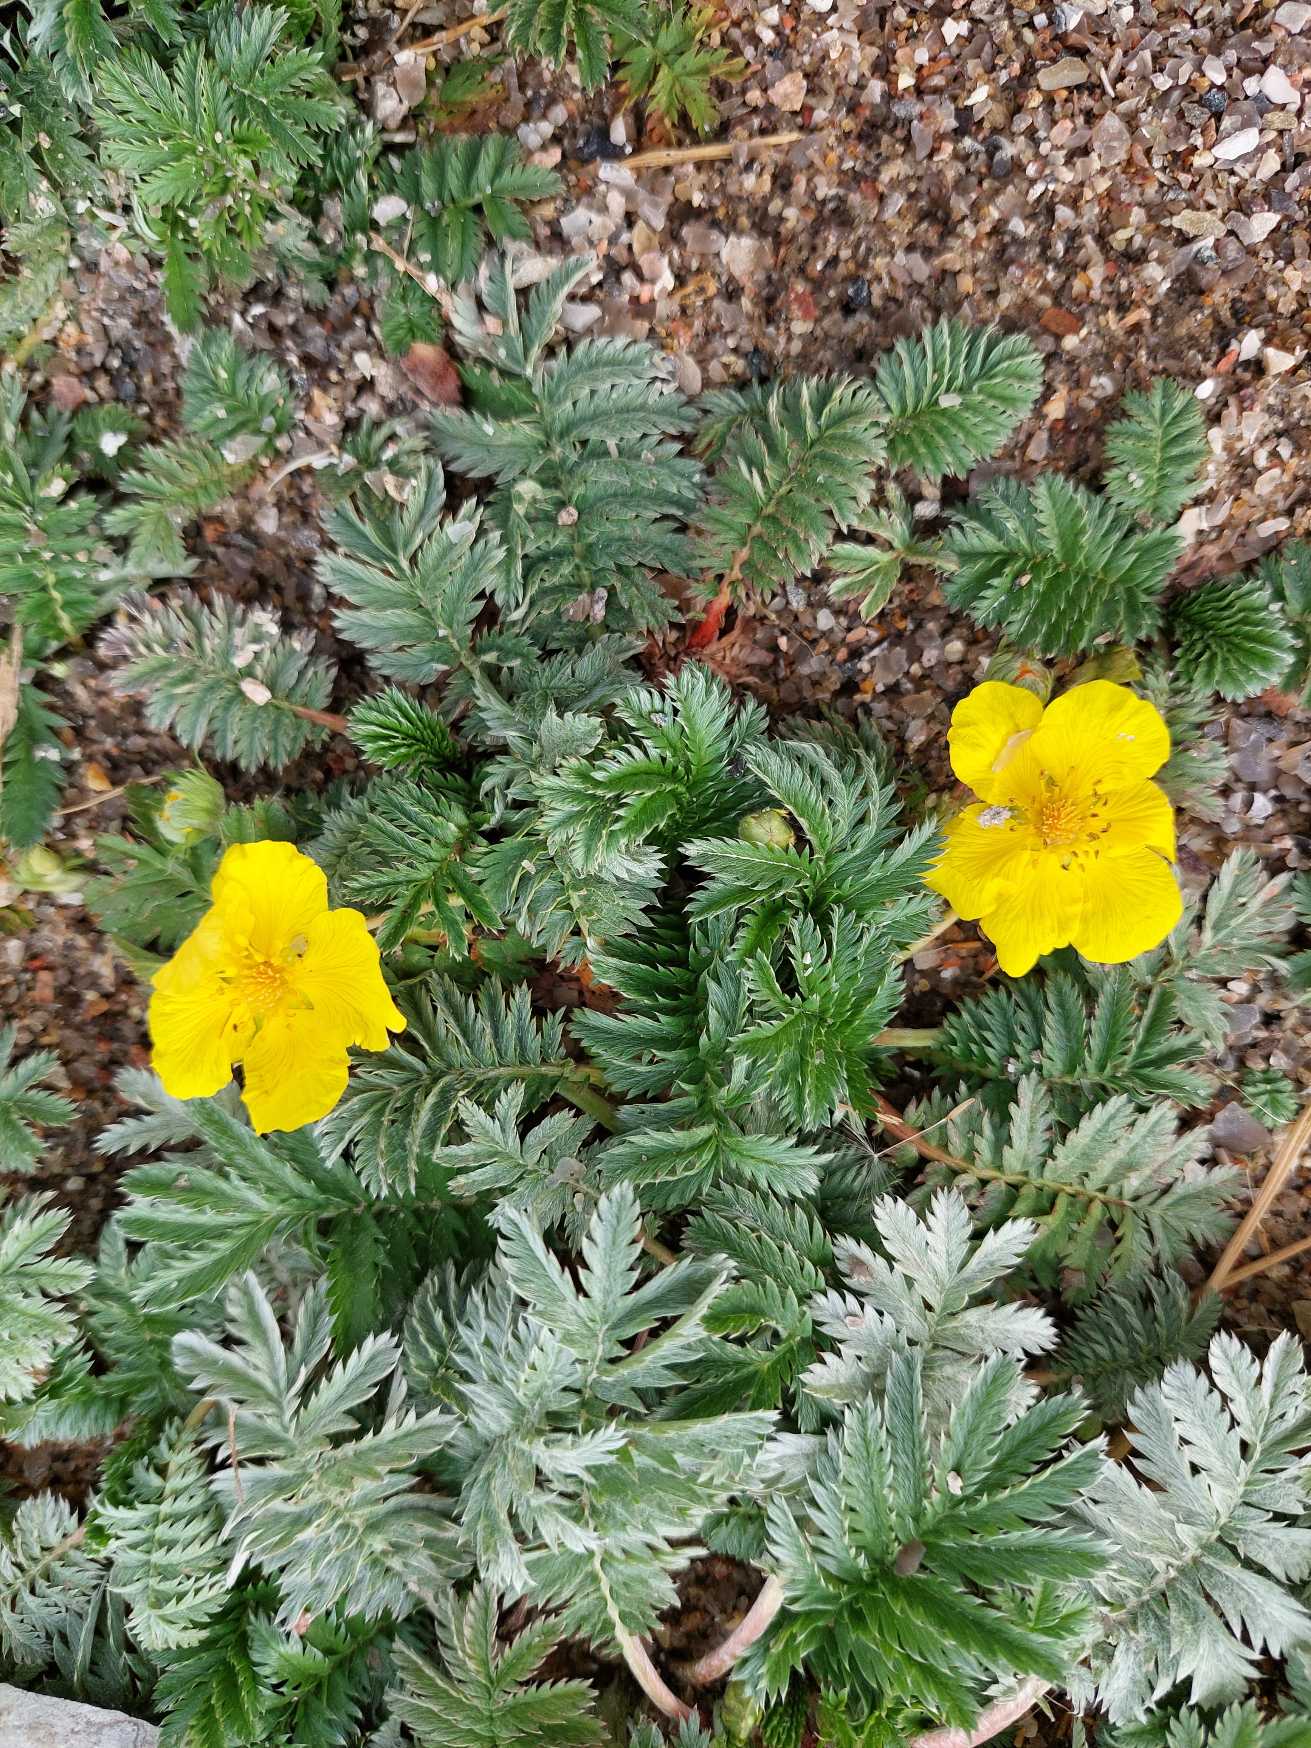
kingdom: Plantae
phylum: Tracheophyta
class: Magnoliopsida
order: Rosales
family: Rosaceae
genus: Argentina
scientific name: Argentina anserina
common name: Gåsepotentil
